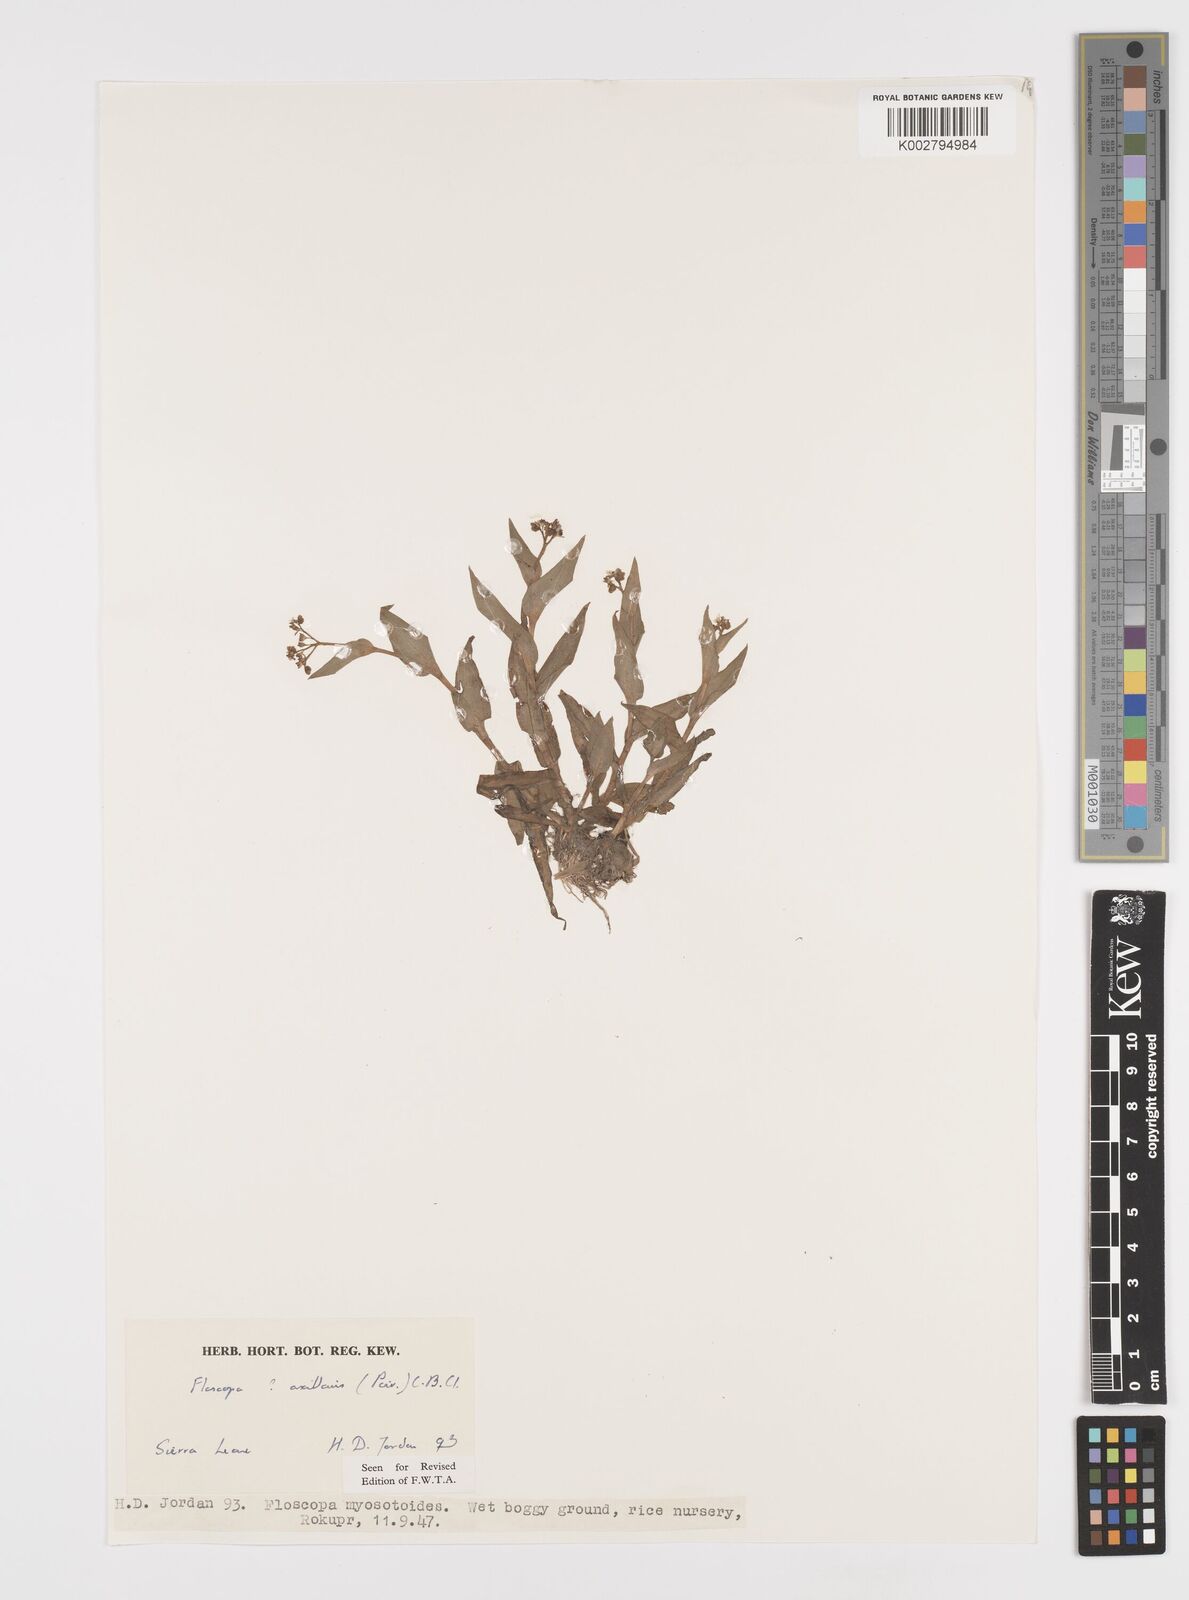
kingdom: Plantae
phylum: Tracheophyta
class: Liliopsida
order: Commelinales
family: Commelinaceae
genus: Floscopa
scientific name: Floscopa axillaris
